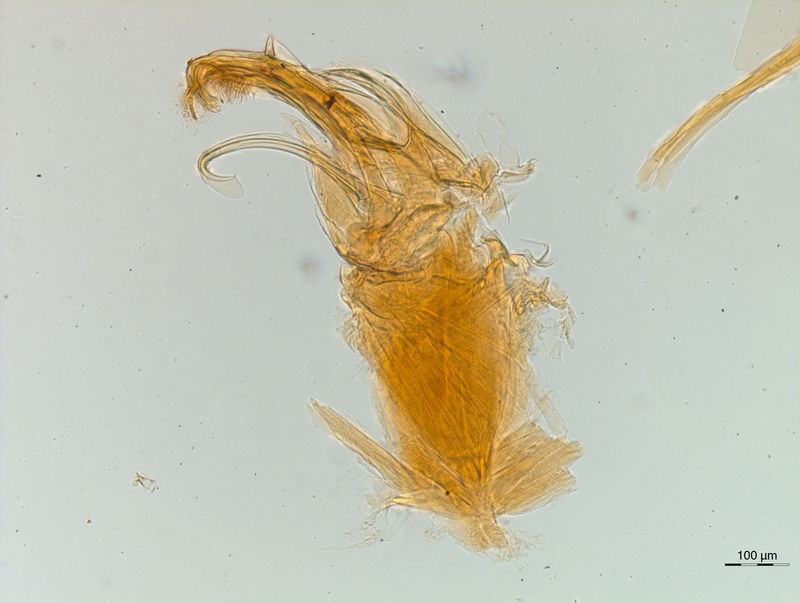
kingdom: Animalia
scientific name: Animalia
